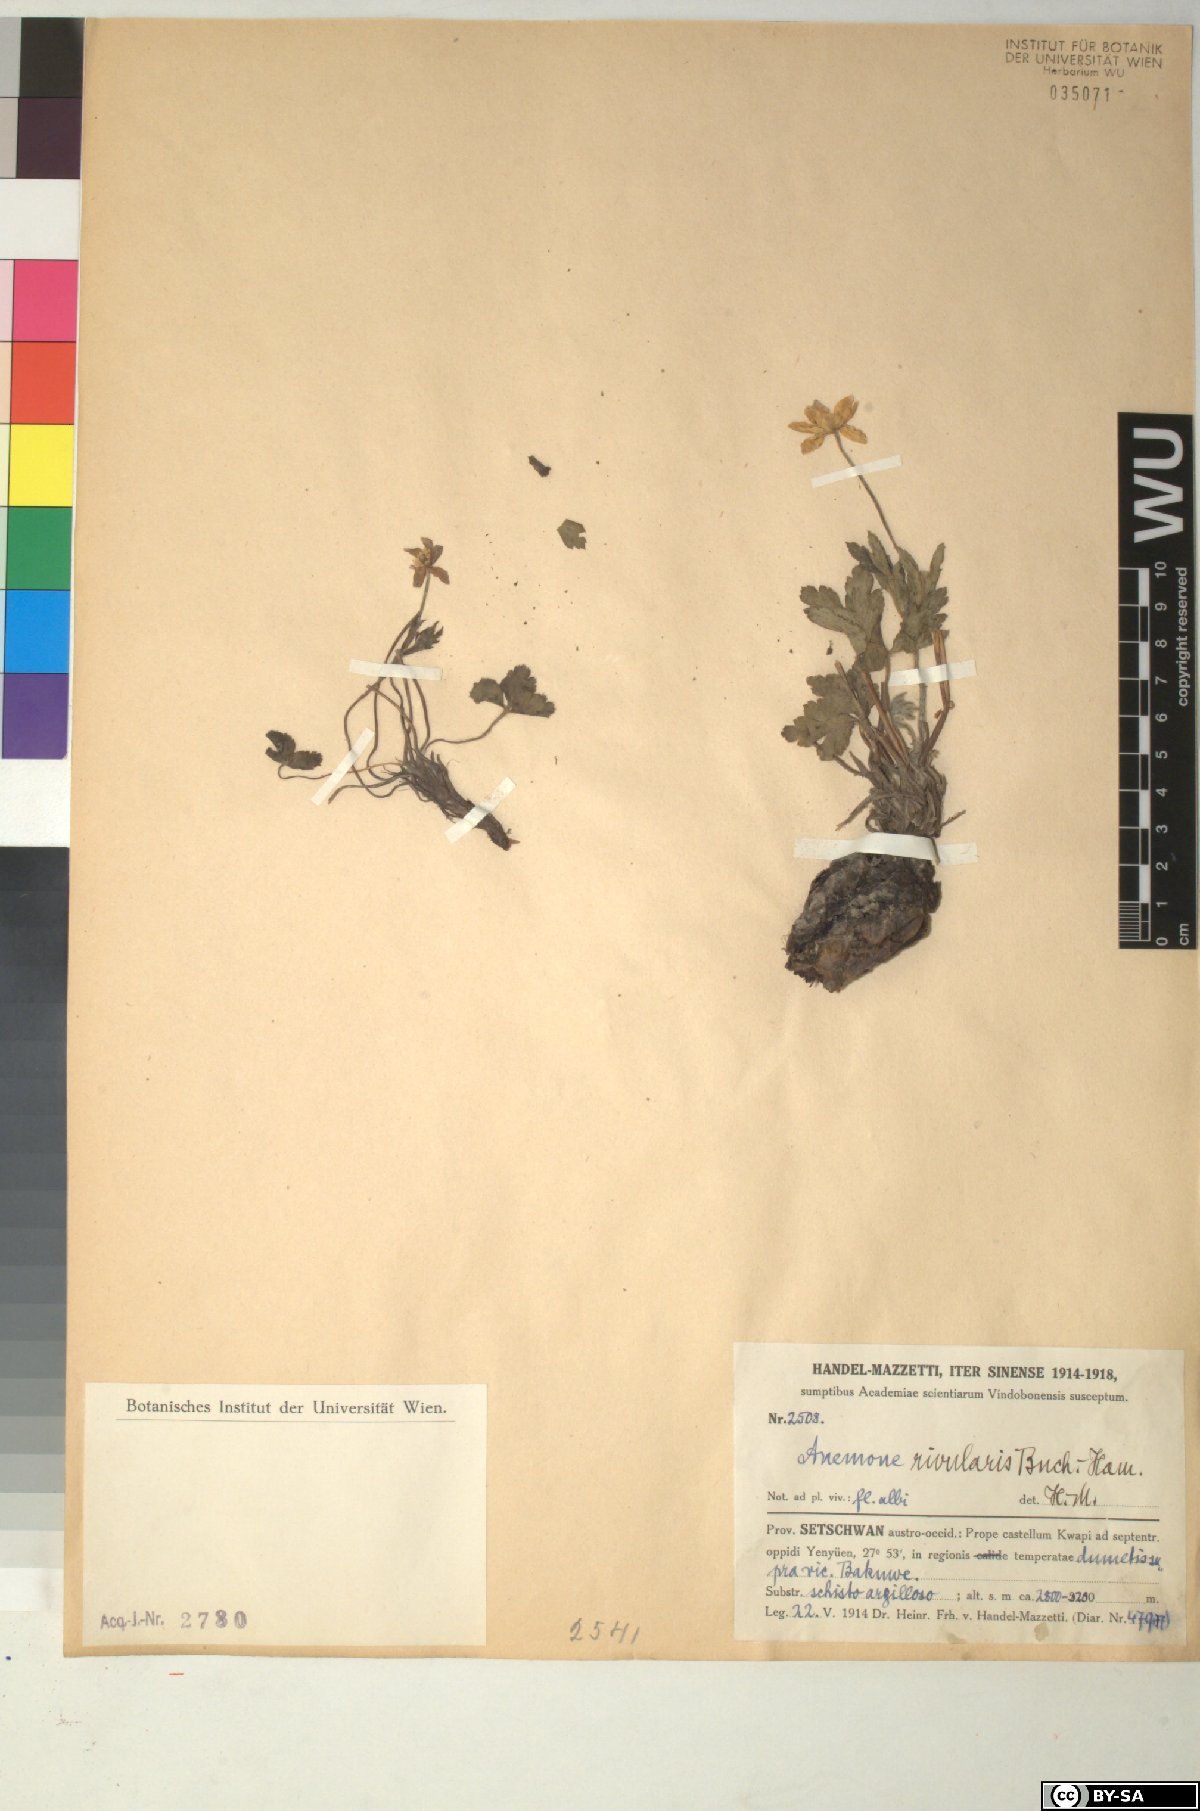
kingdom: Plantae
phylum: Tracheophyta
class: Magnoliopsida
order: Ranunculales
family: Ranunculaceae
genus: Eriocapitella
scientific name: Eriocapitella rivularis
